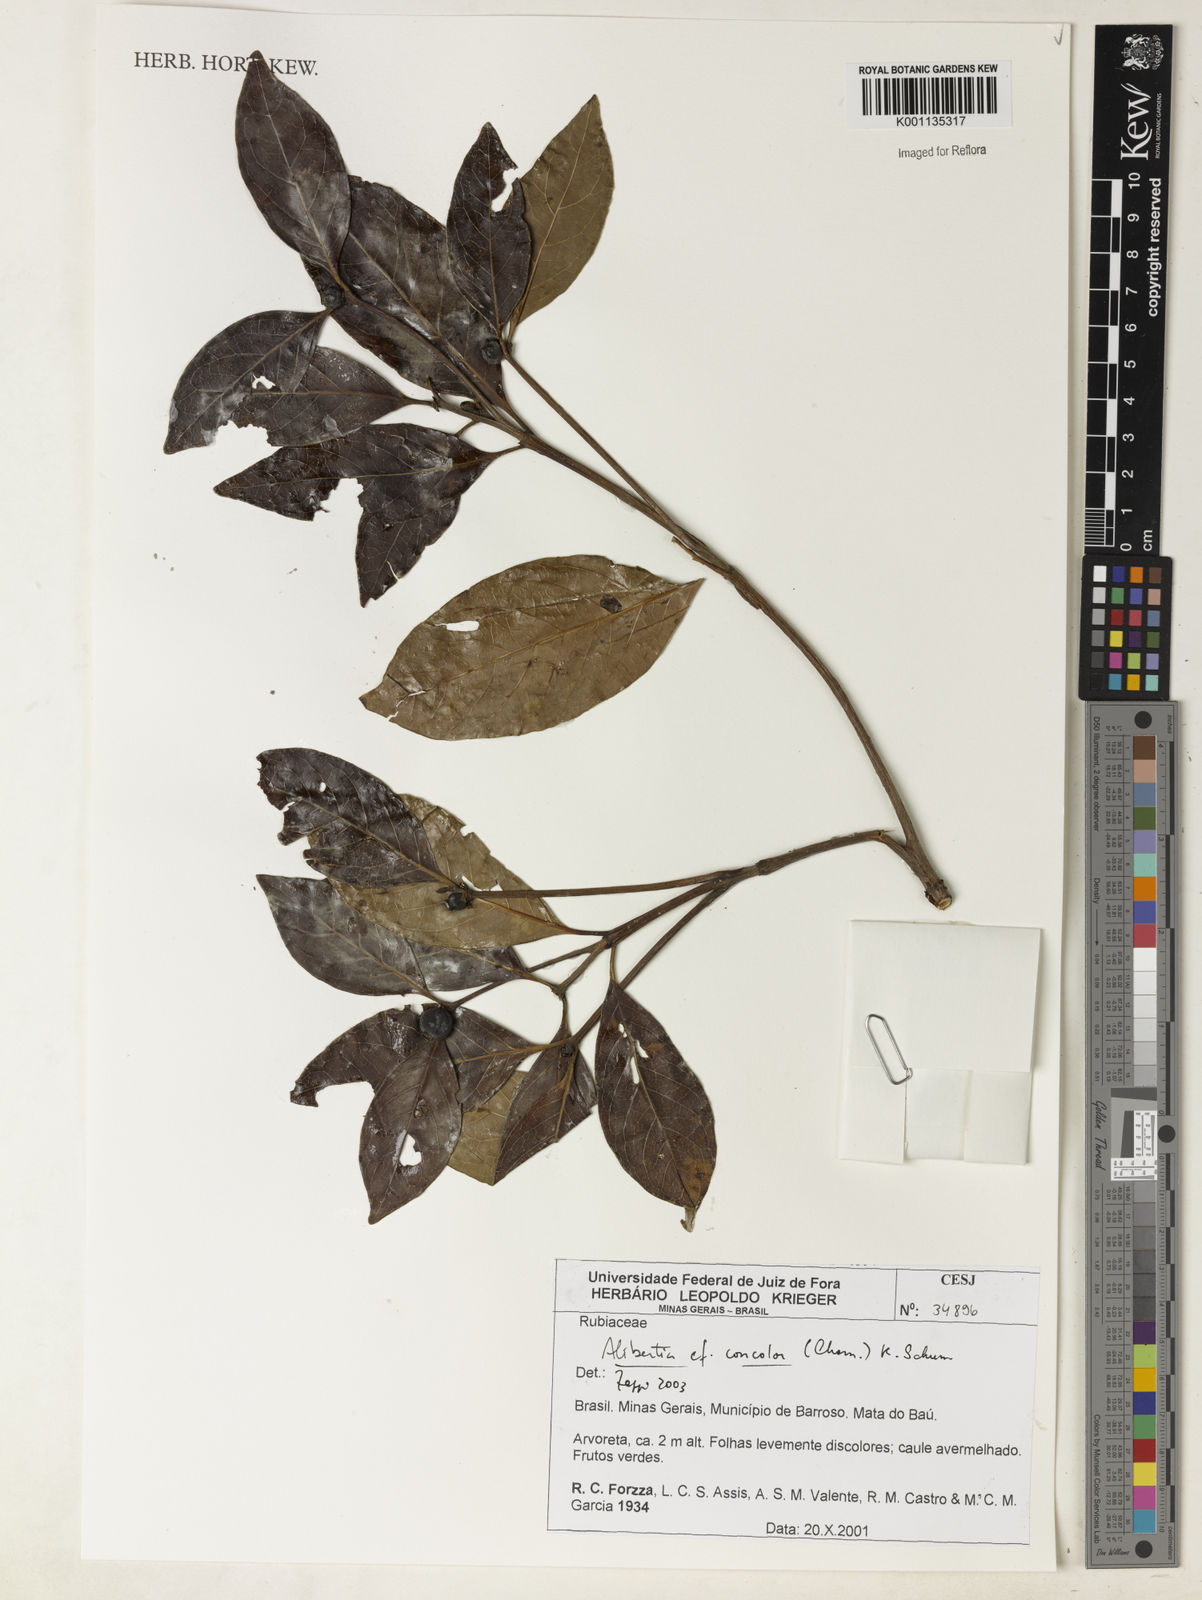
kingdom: Plantae
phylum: Tracheophyta
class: Magnoliopsida
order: Gentianales
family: Rubiaceae
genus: Cordiera
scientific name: Cordiera concolor
